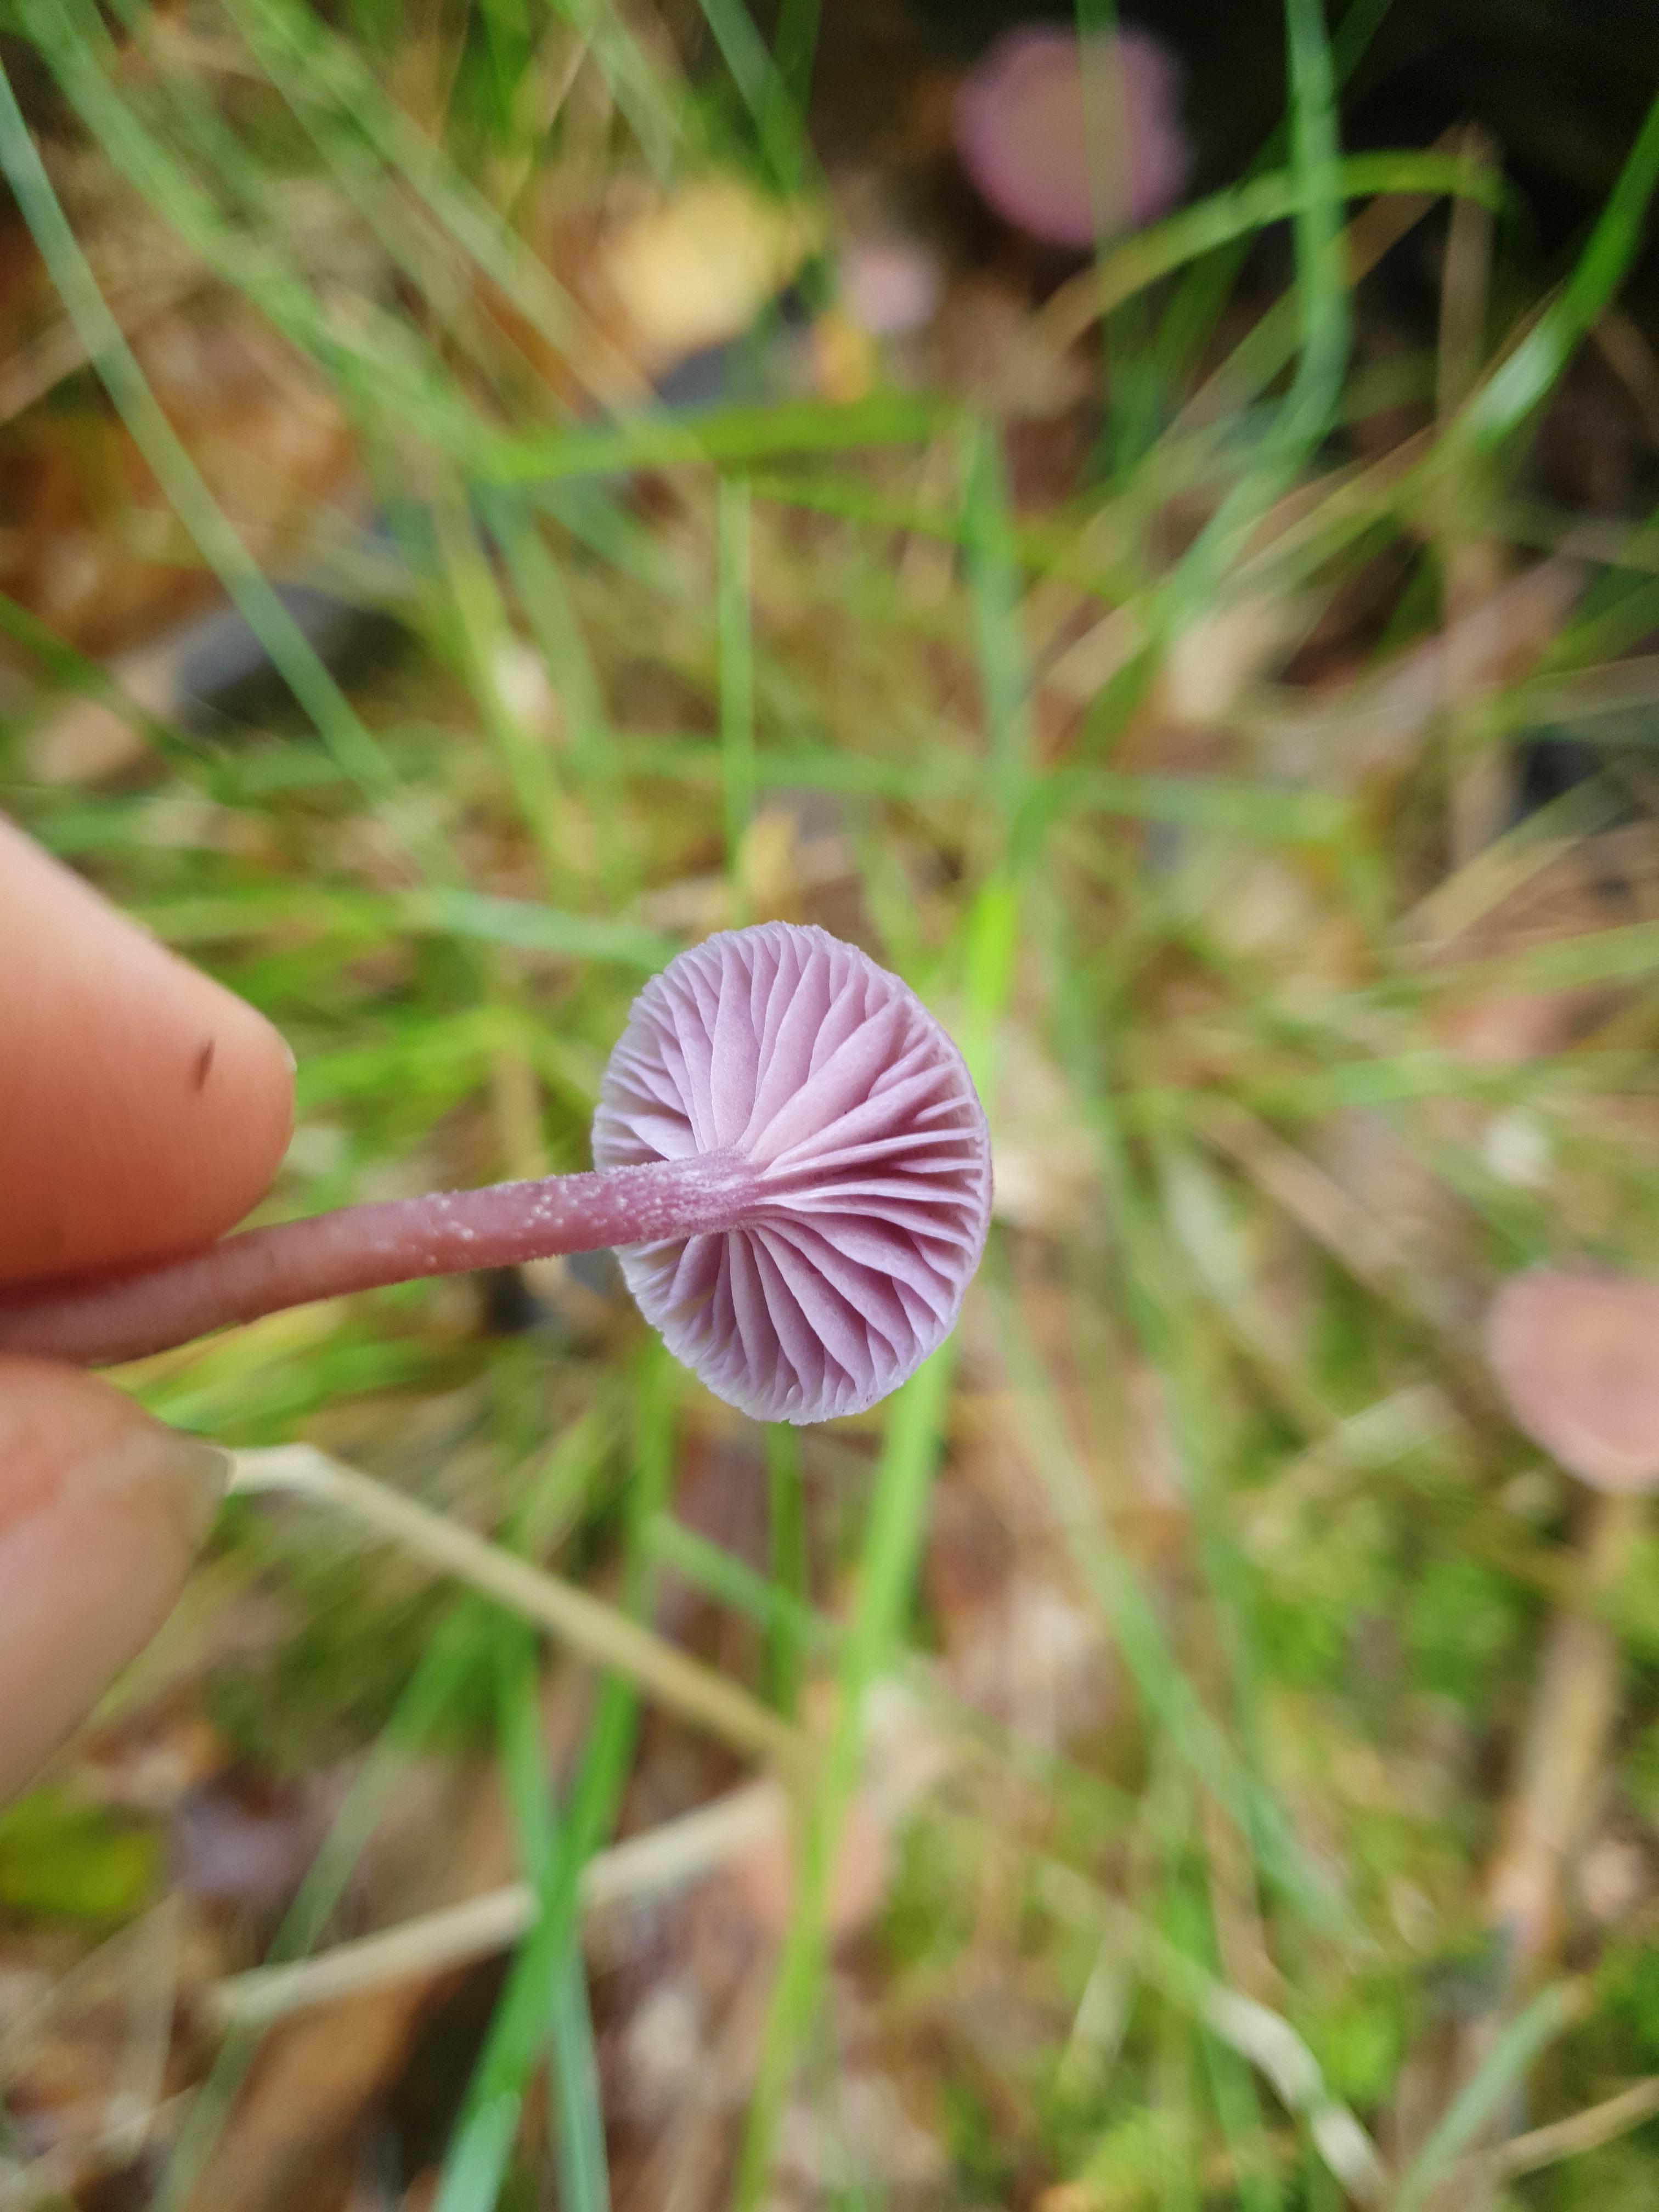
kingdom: Fungi
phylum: Basidiomycota
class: Agaricomycetes
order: Agaricales
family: Hydnangiaceae
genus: Laccaria
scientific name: Laccaria amethystina
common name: violet ametysthat
